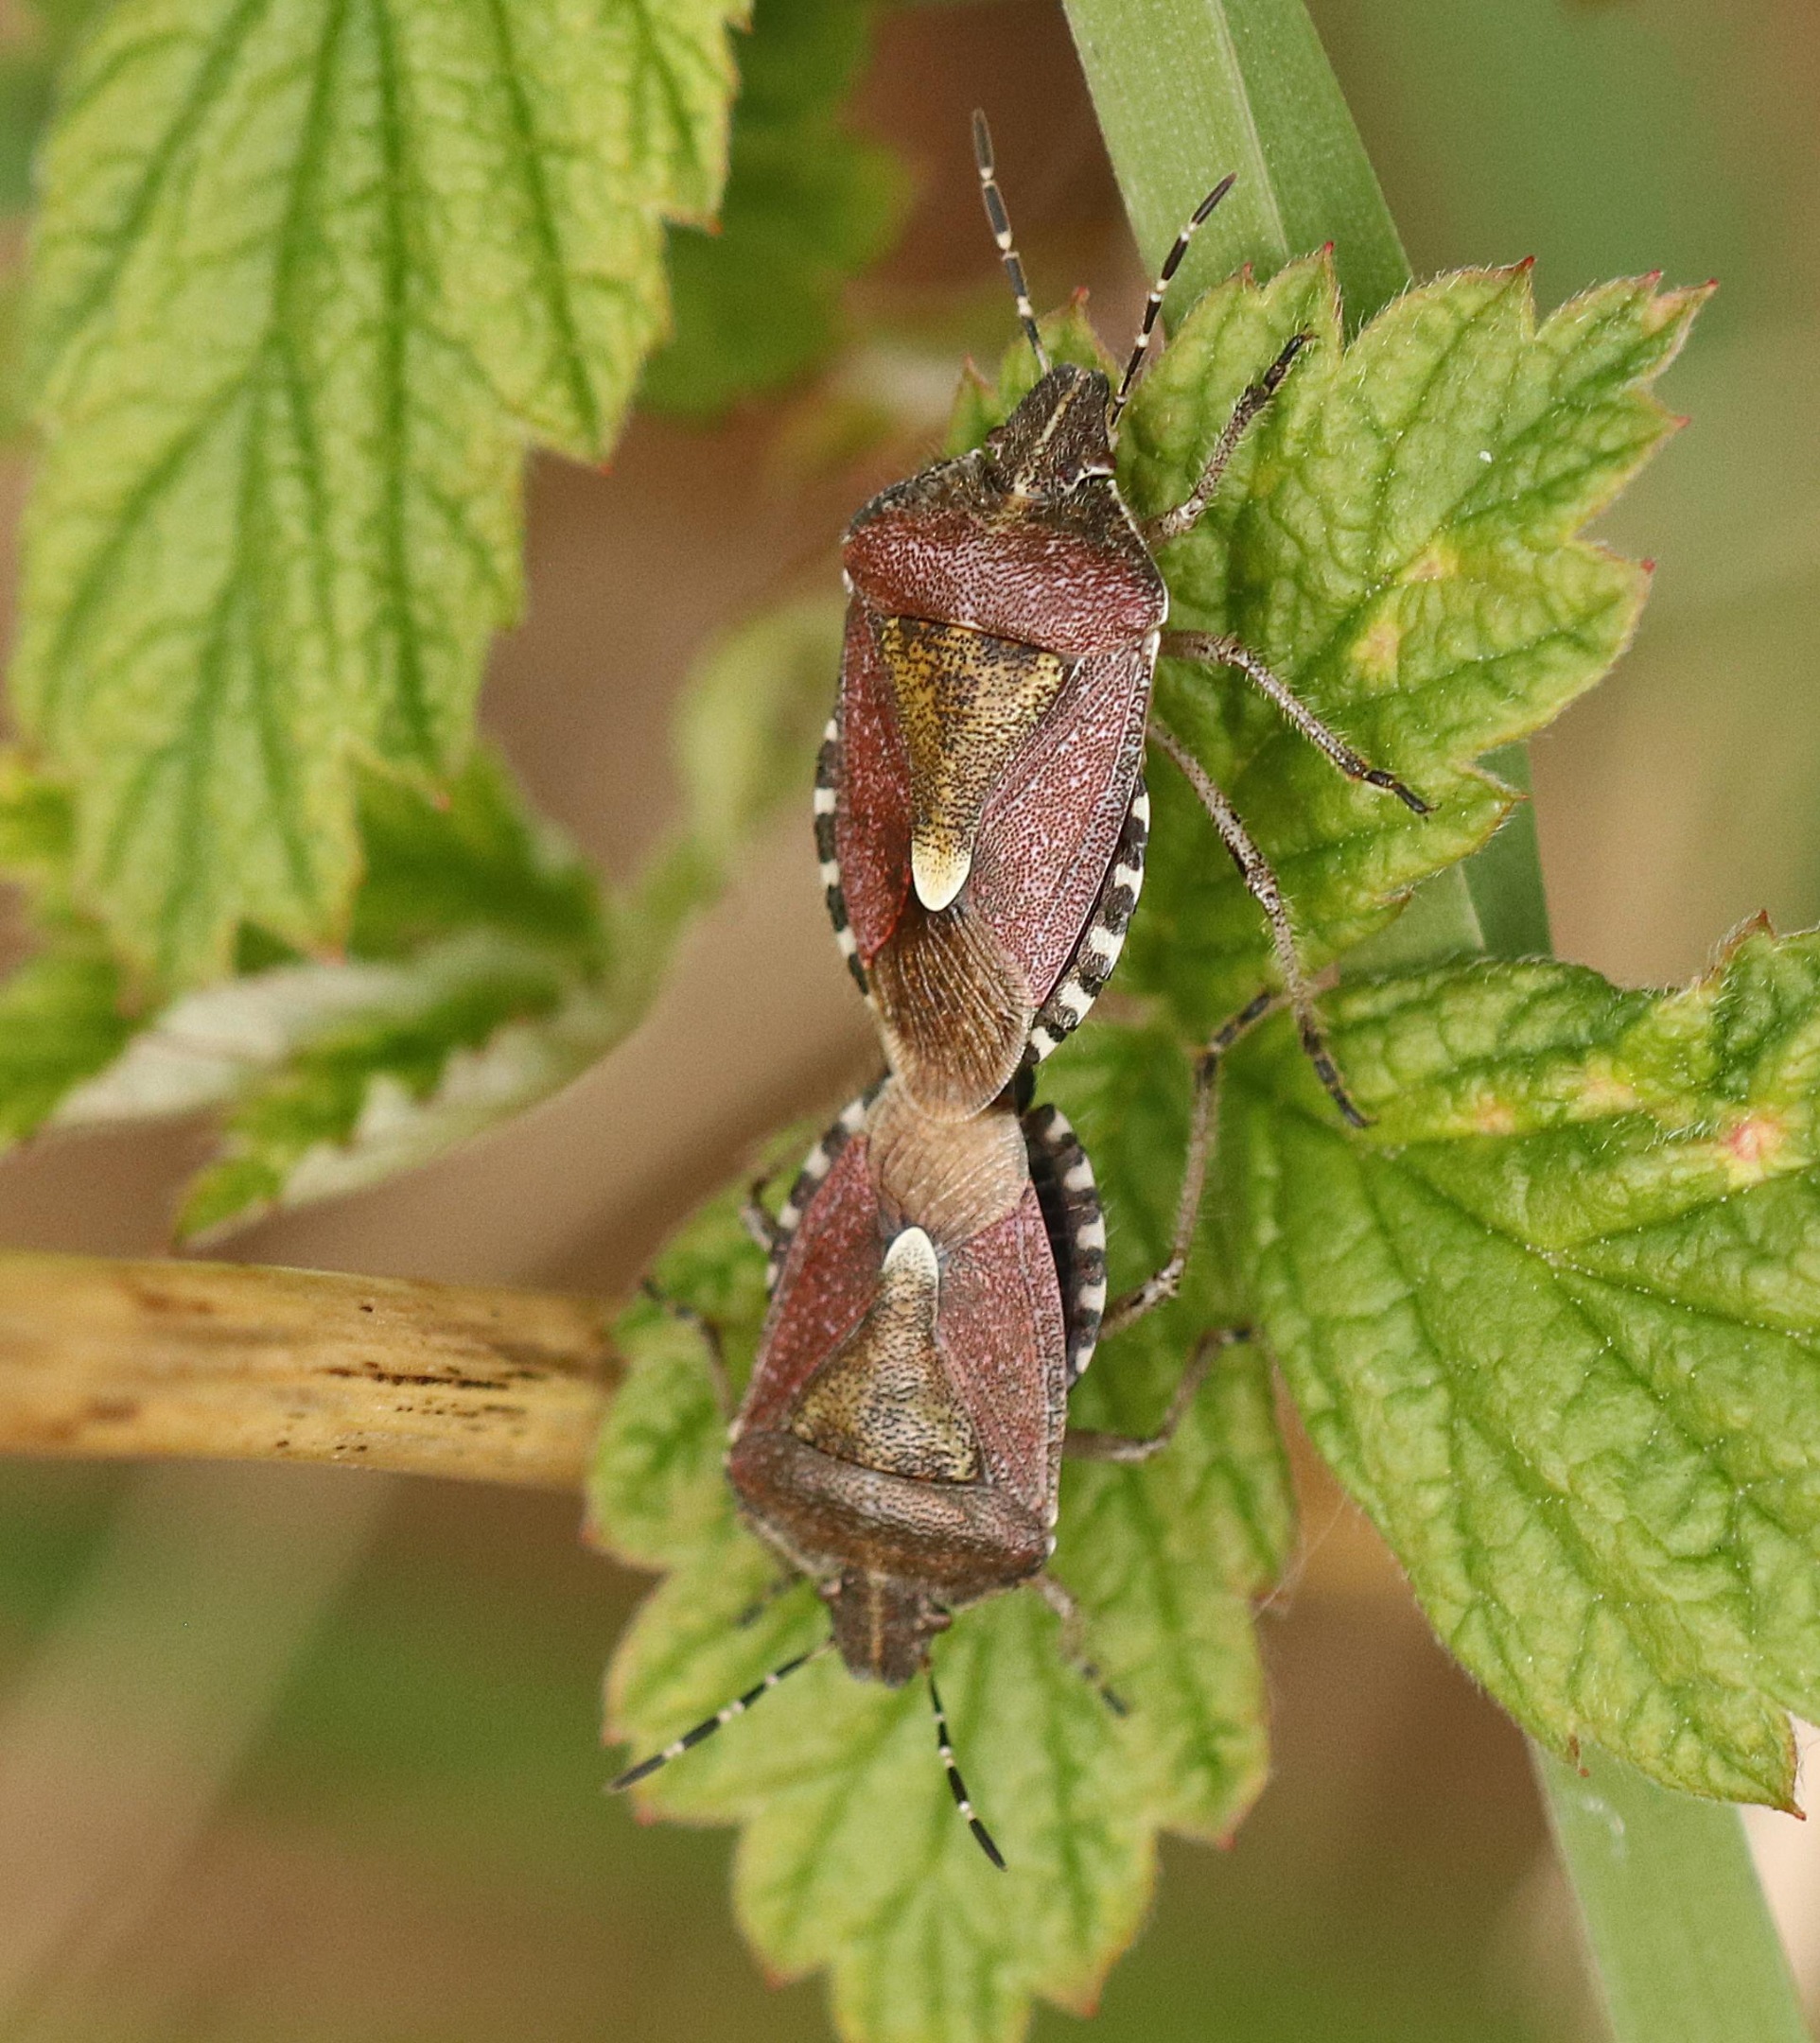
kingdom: Animalia
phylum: Arthropoda
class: Insecta
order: Hemiptera
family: Pentatomidae
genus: Dolycoris
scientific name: Dolycoris baccarum
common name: Almindelig bærtæge
